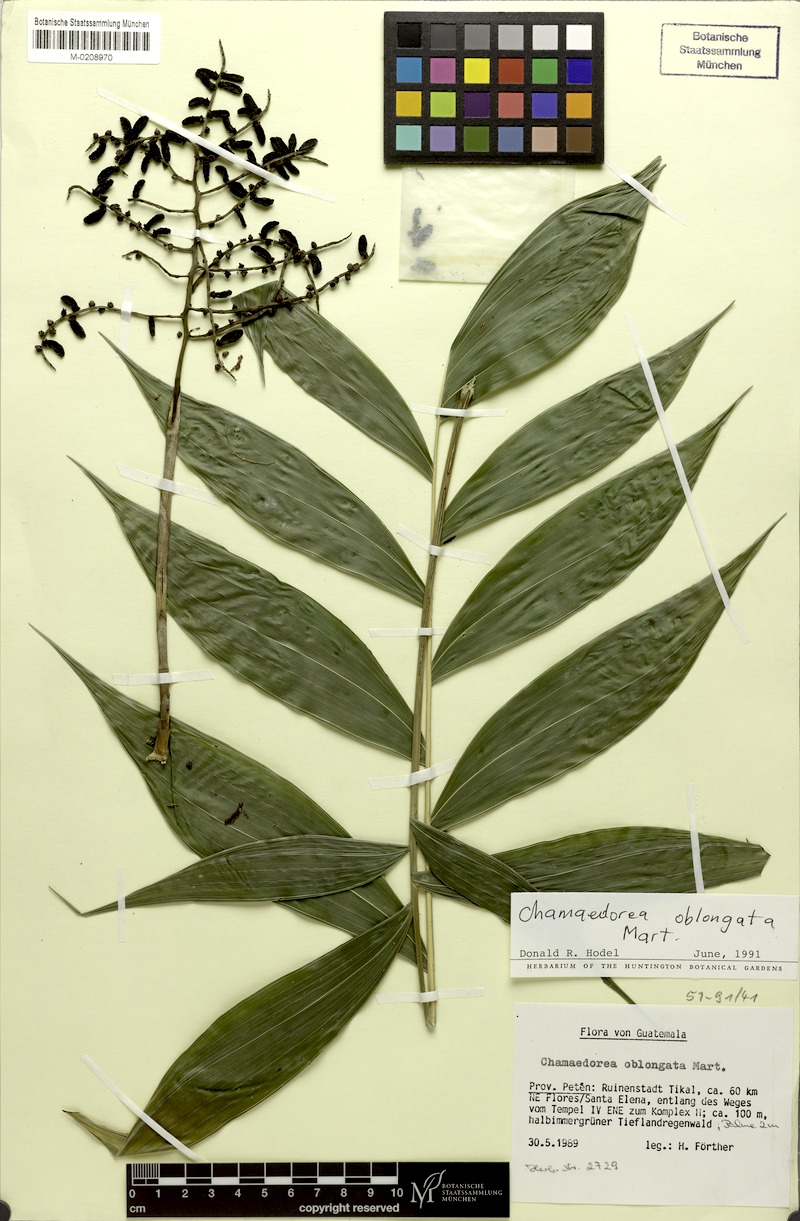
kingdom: Plantae
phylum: Tracheophyta
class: Liliopsida
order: Arecales
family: Arecaceae
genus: Chamaedorea
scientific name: Chamaedorea oblongata
